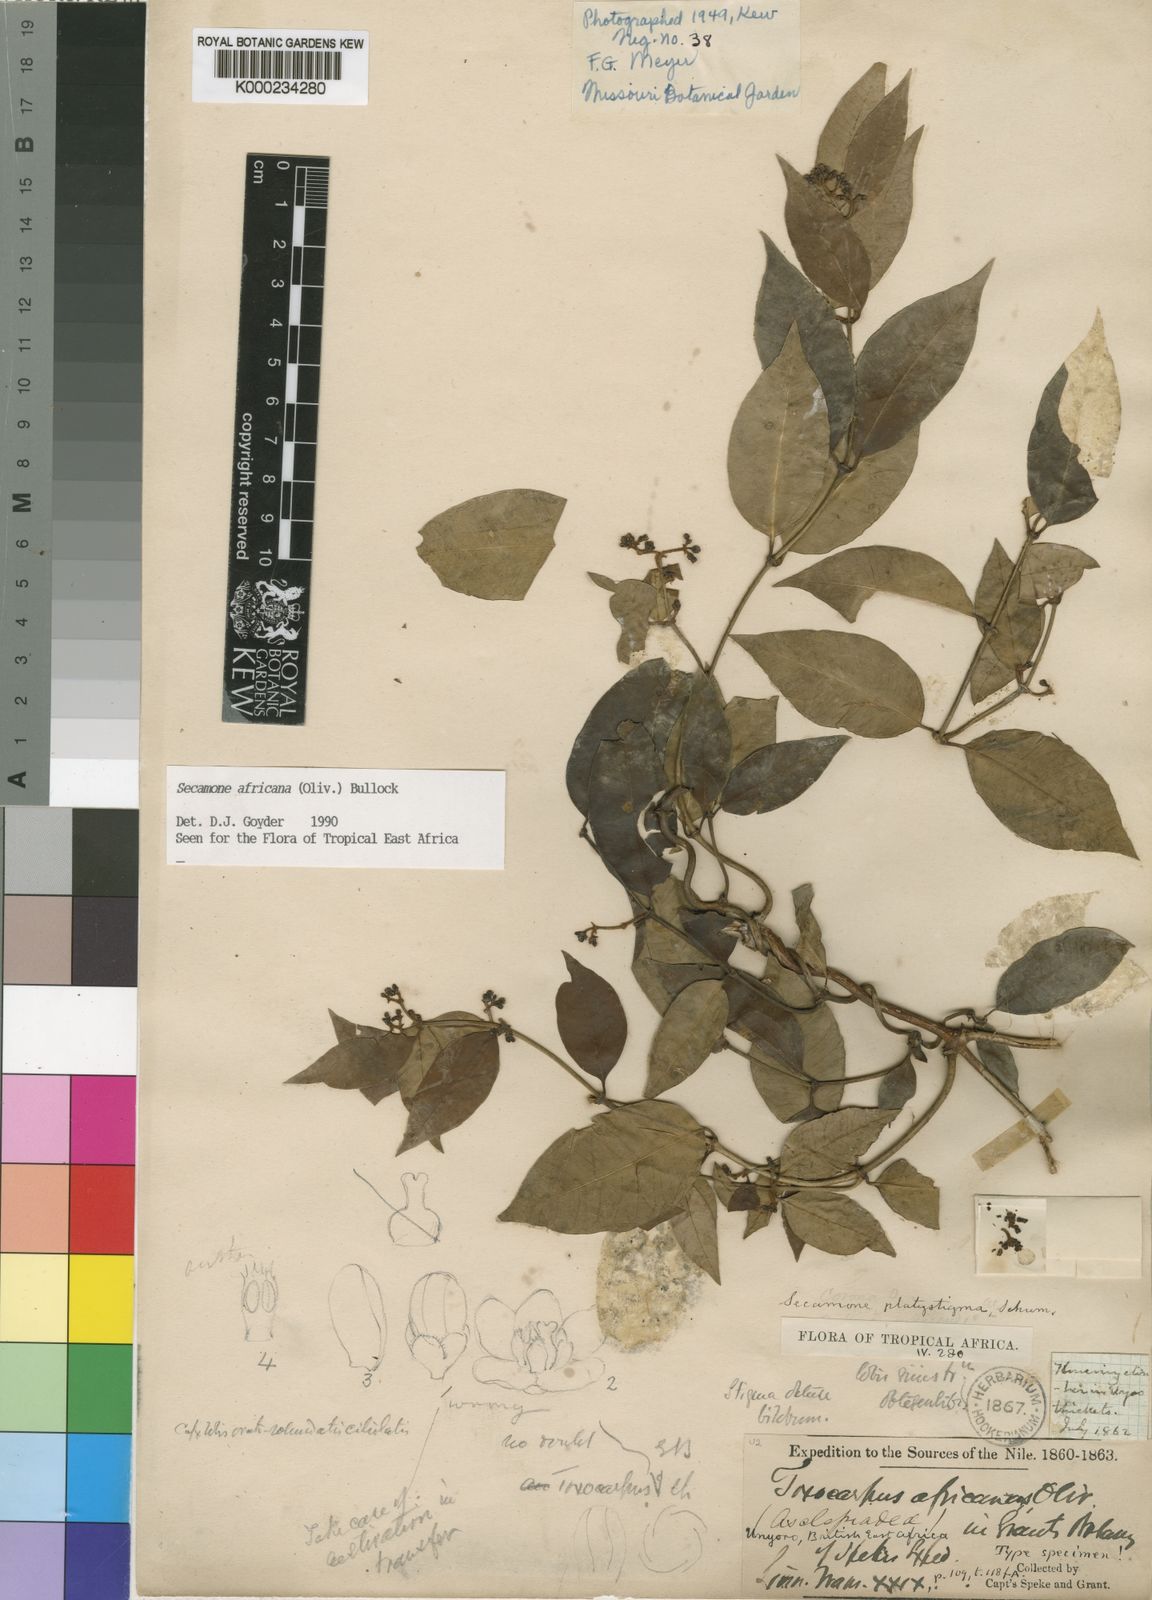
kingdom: Plantae
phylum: Tracheophyta
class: Magnoliopsida
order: Gentianales
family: Apocynaceae
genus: Secamone
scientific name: Secamone africana
